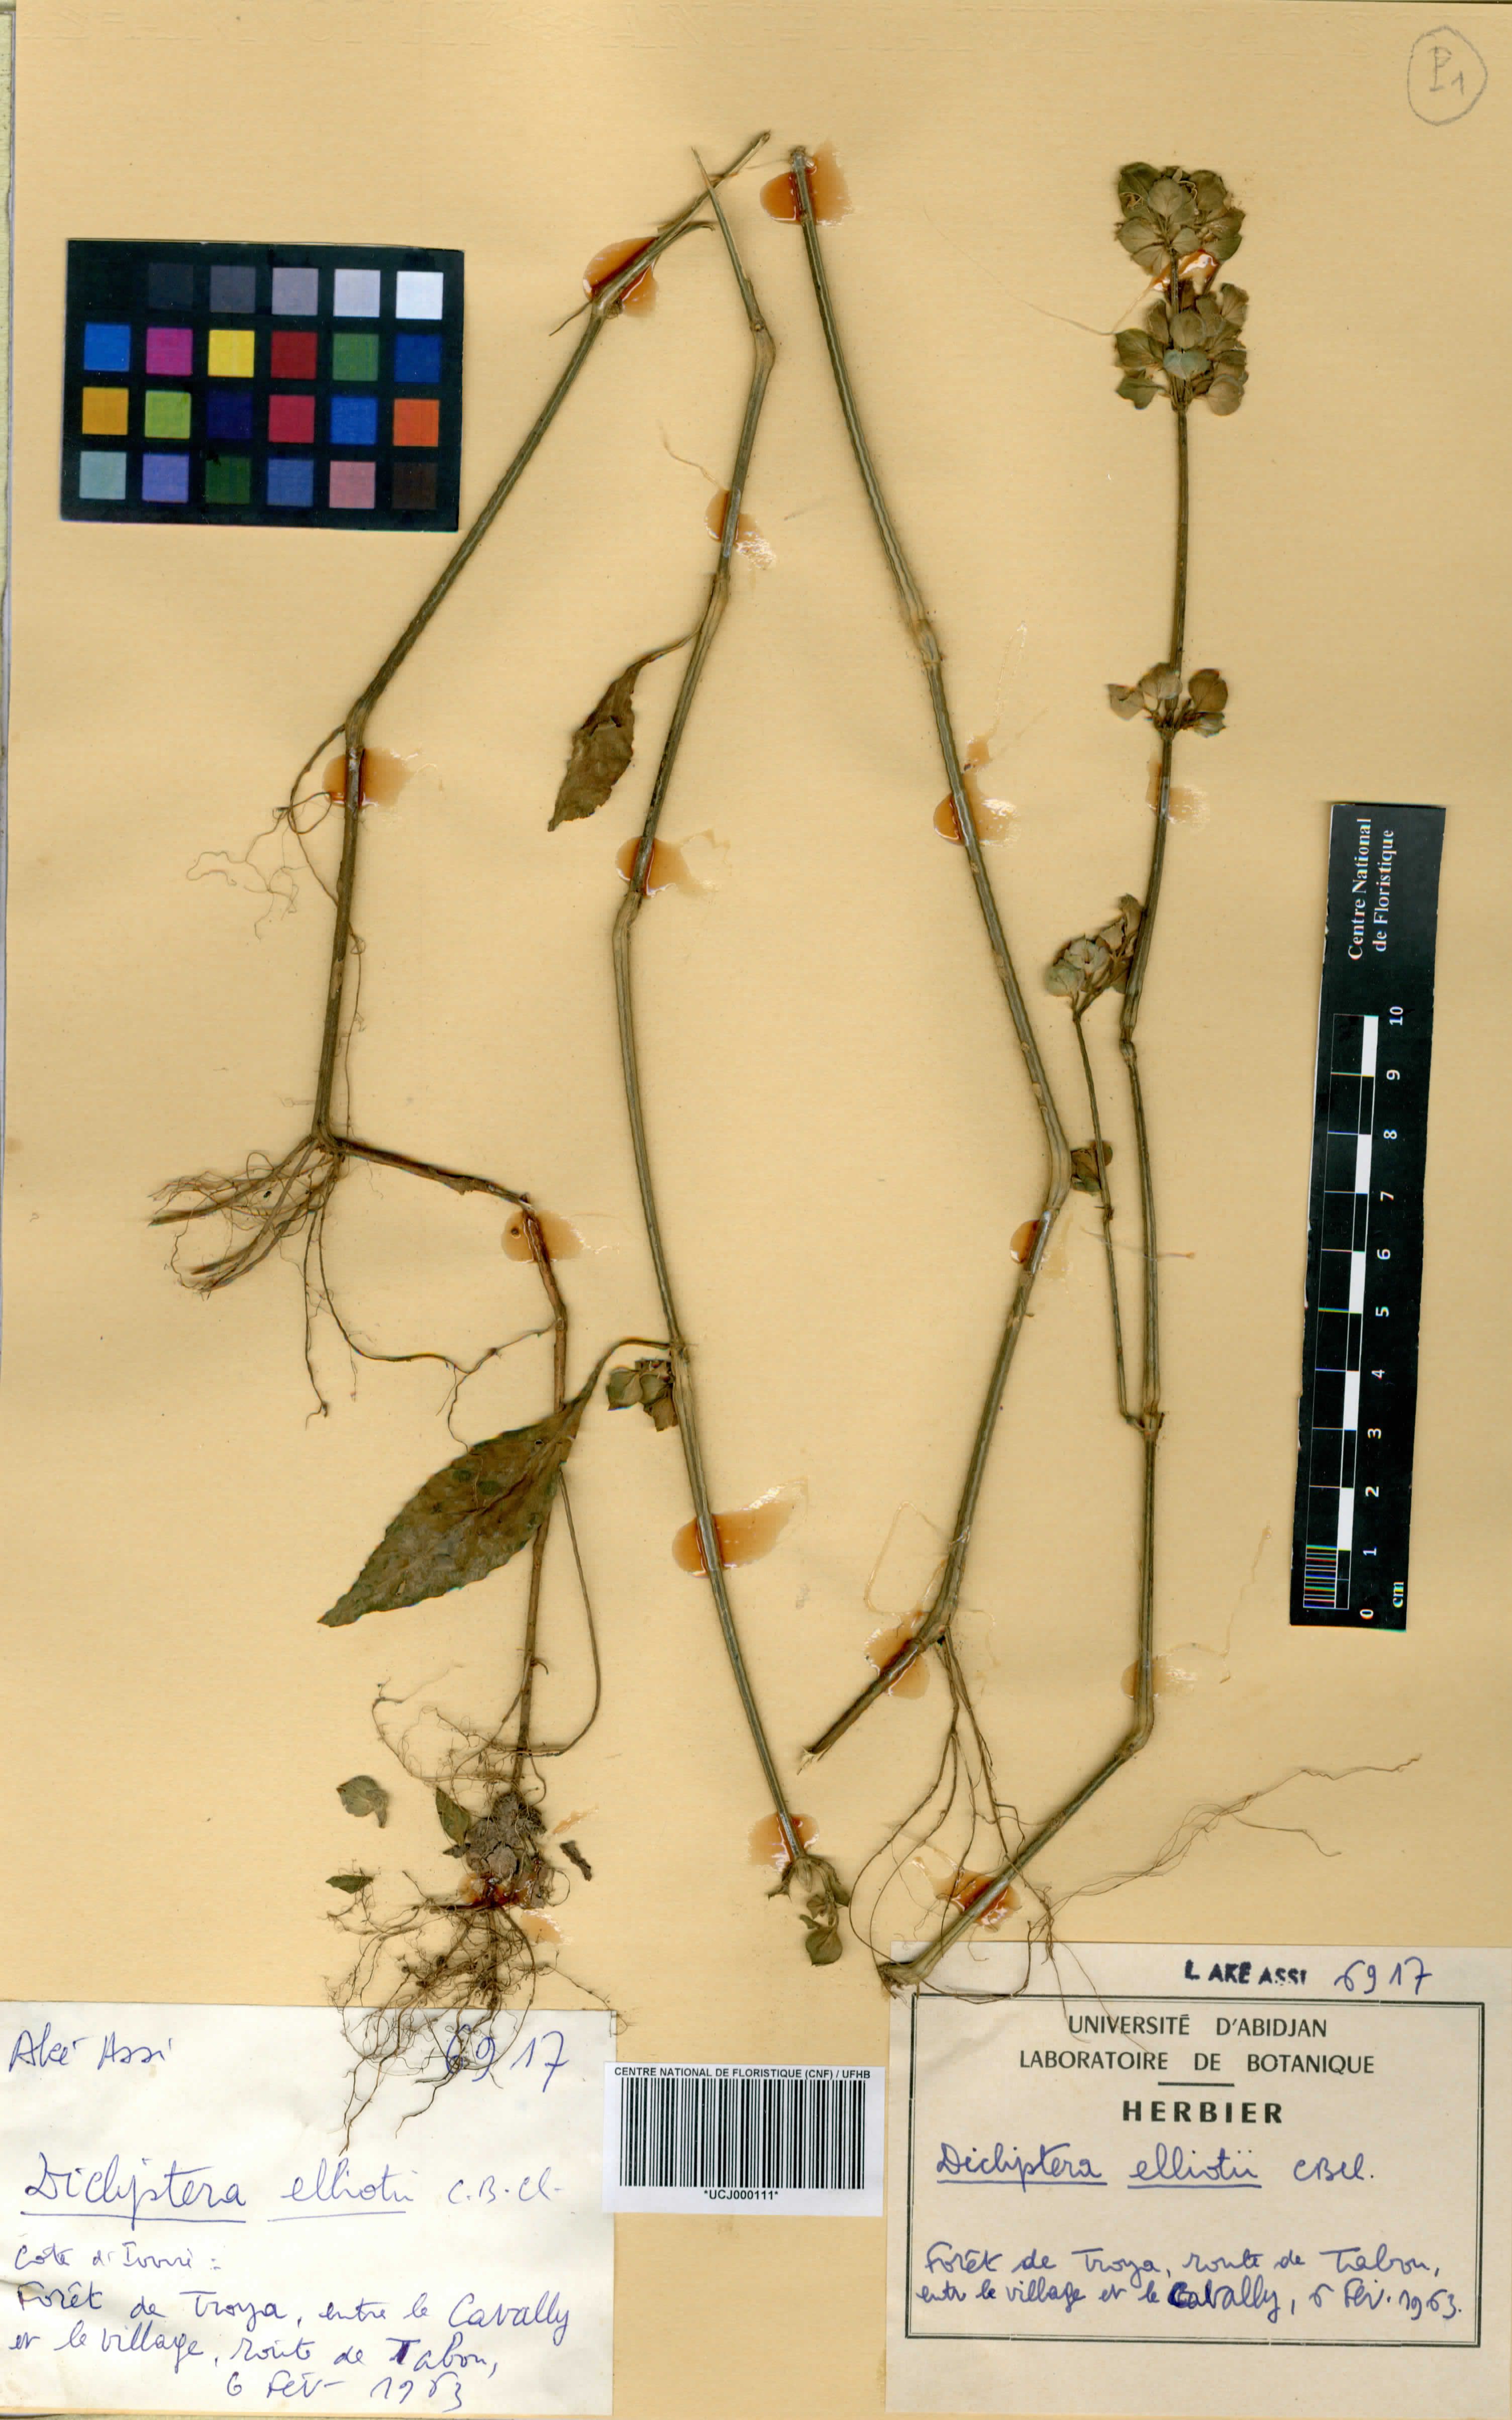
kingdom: Plantae
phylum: Tracheophyta
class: Magnoliopsida
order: Lamiales
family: Acanthaceae
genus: Dicliptera
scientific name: Dicliptera elliotii
